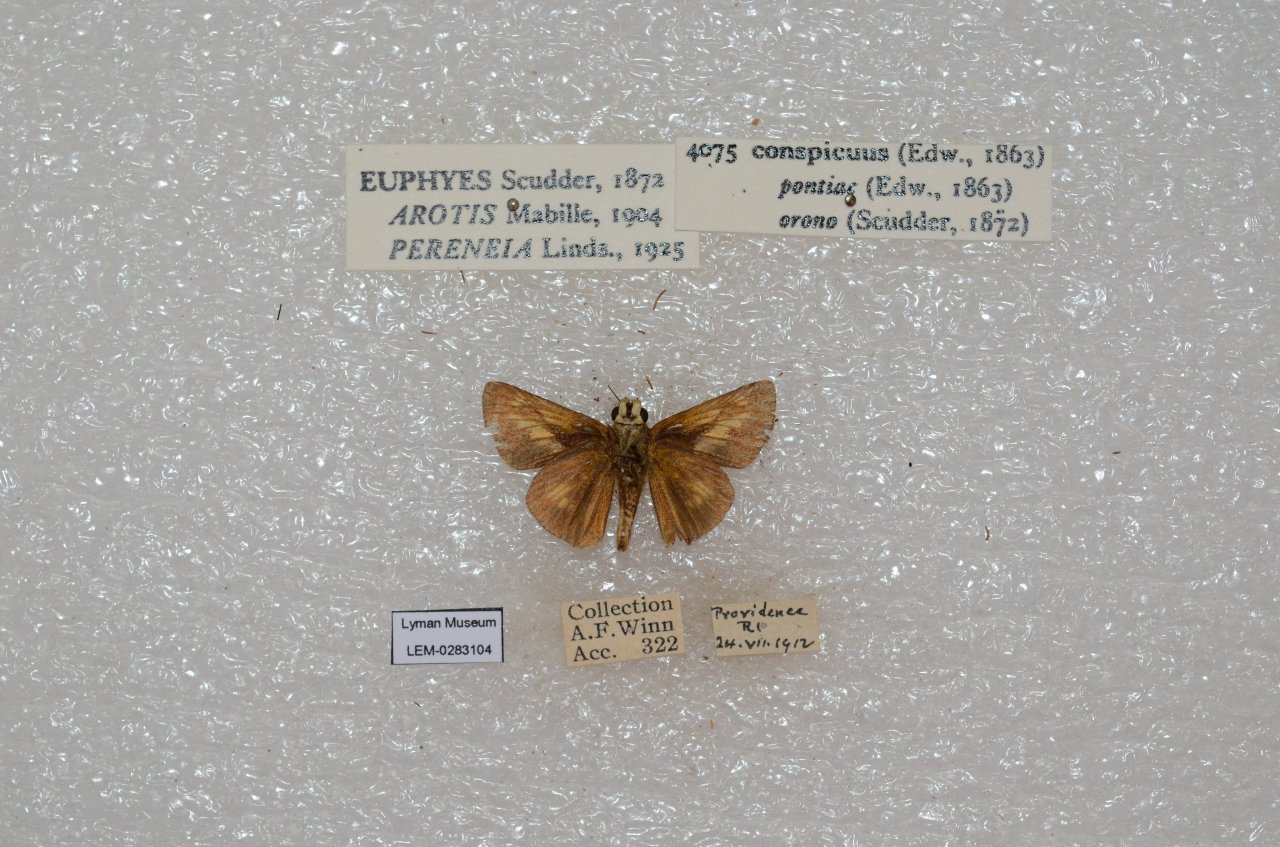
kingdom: Animalia
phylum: Arthropoda
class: Insecta
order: Lepidoptera
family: Hesperiidae
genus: Euphyes
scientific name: Euphyes conspicua
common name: Black Dash
